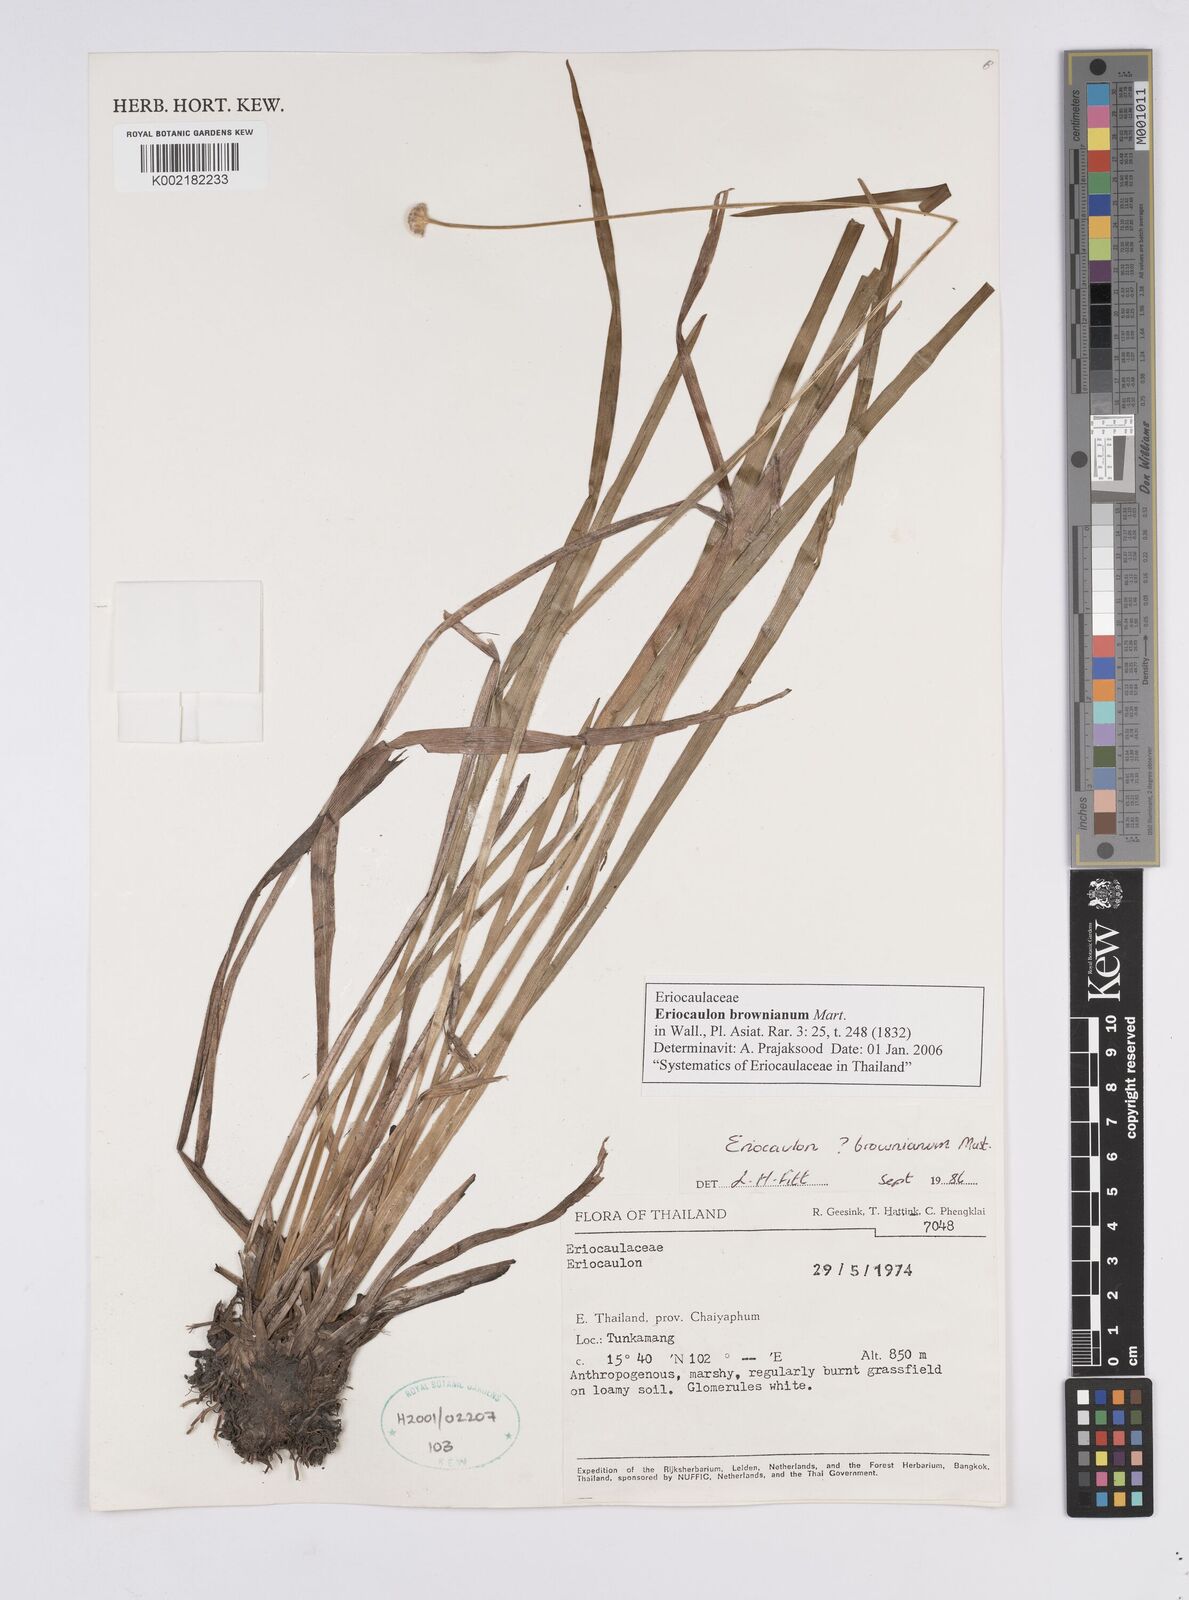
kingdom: Plantae
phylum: Tracheophyta
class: Liliopsida
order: Poales
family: Eriocaulaceae
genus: Eriocaulon
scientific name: Eriocaulon brownianum
